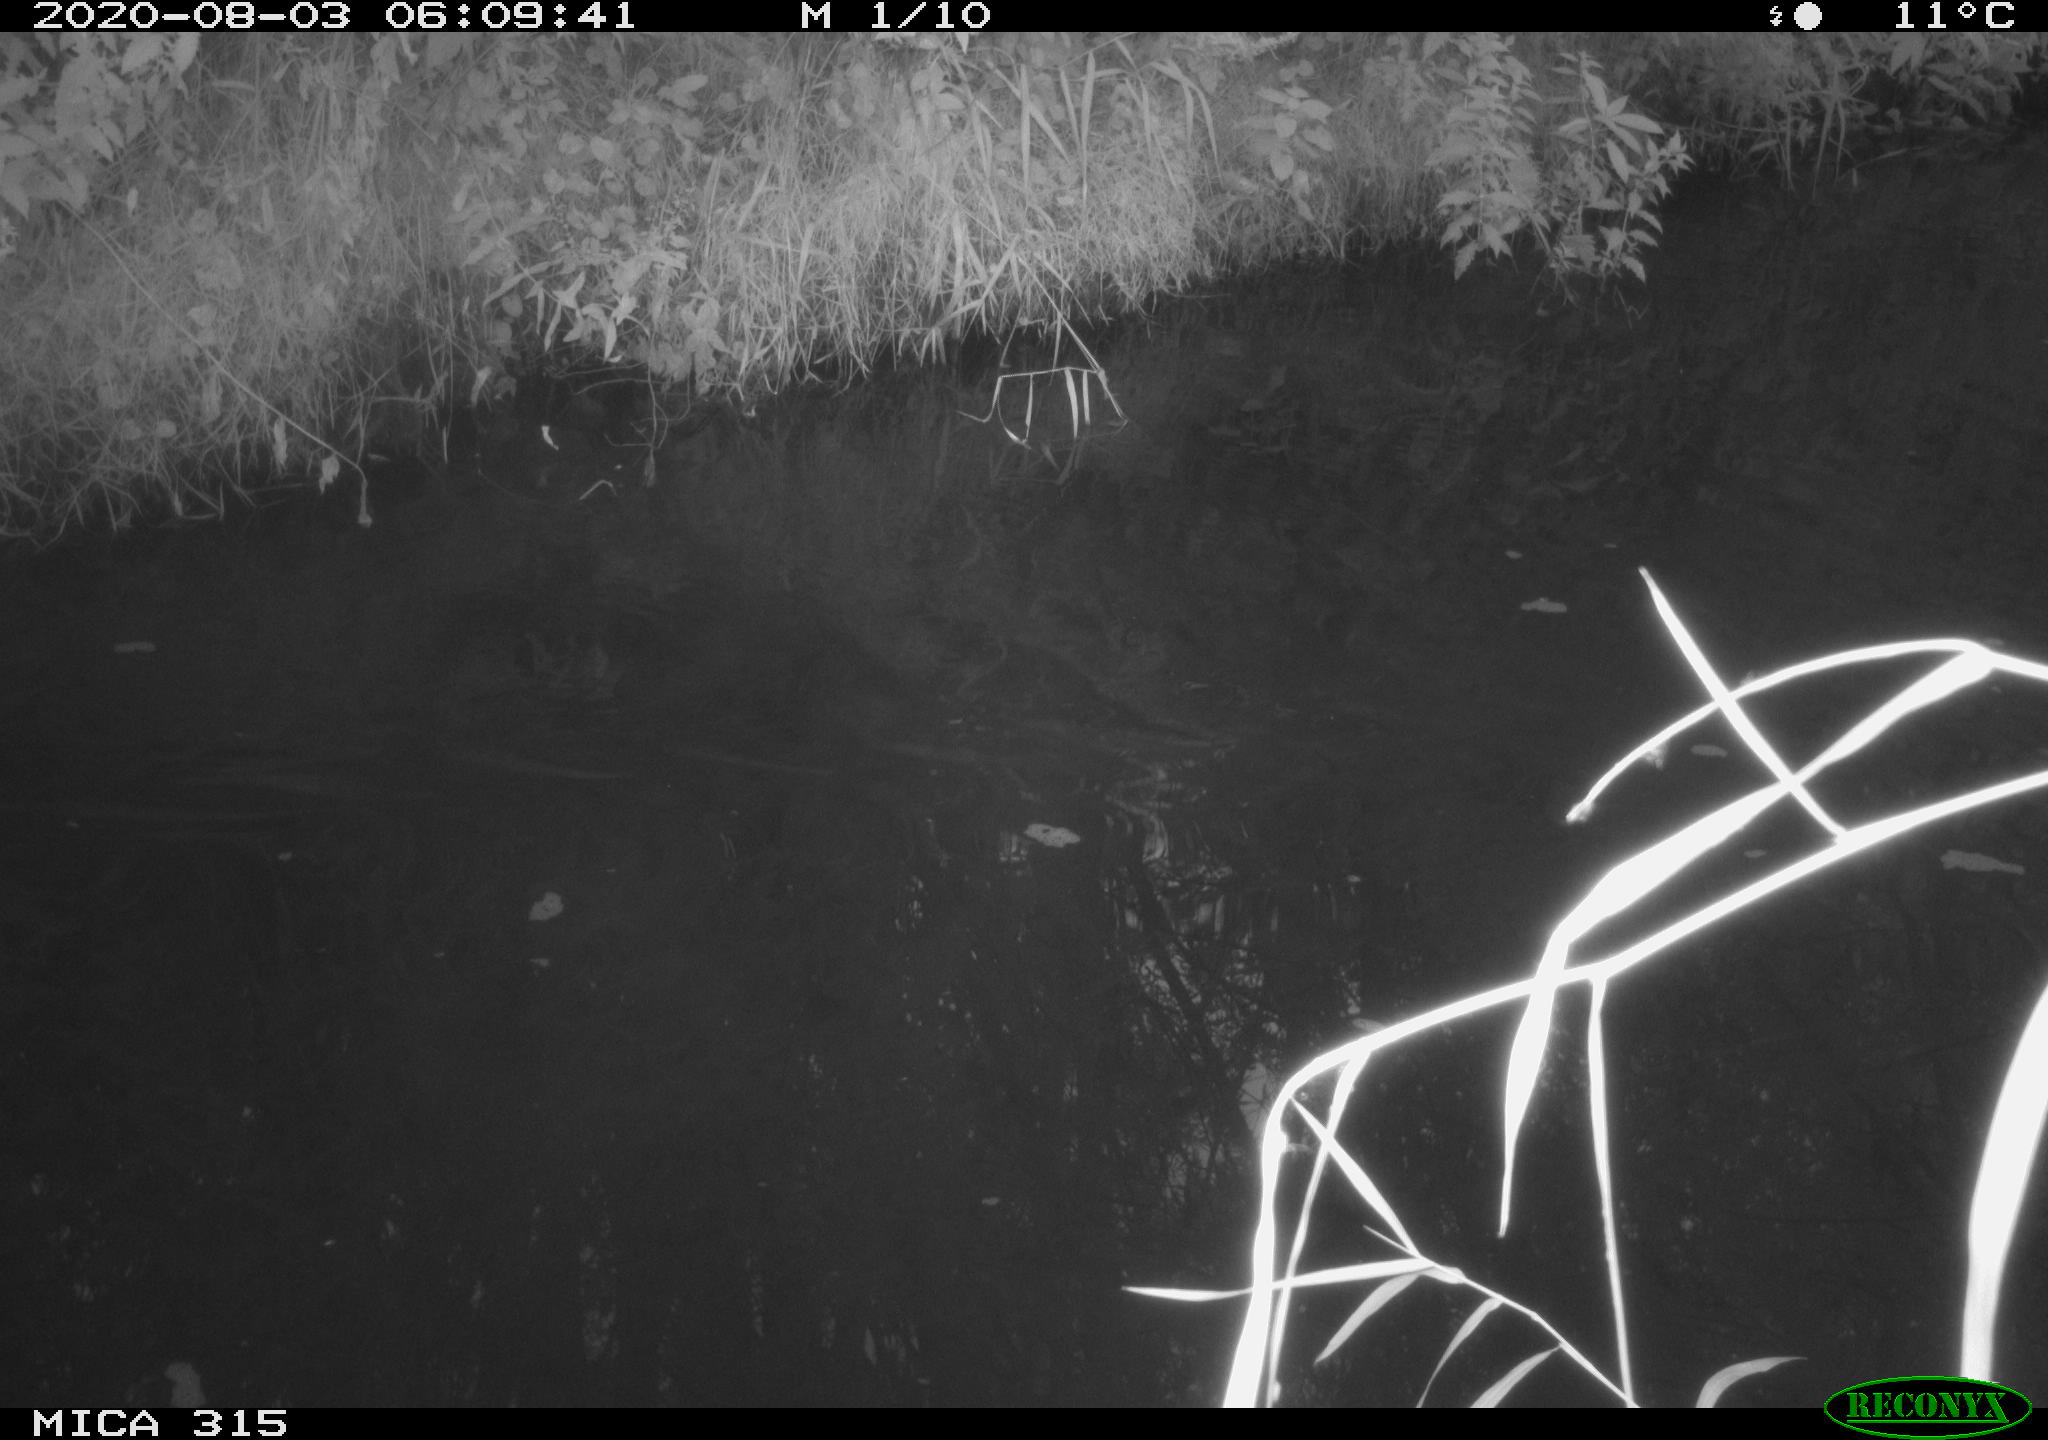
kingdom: Animalia
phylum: Chordata
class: Aves
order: Anseriformes
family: Anatidae
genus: Anas
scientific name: Anas platyrhynchos
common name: Mallard
